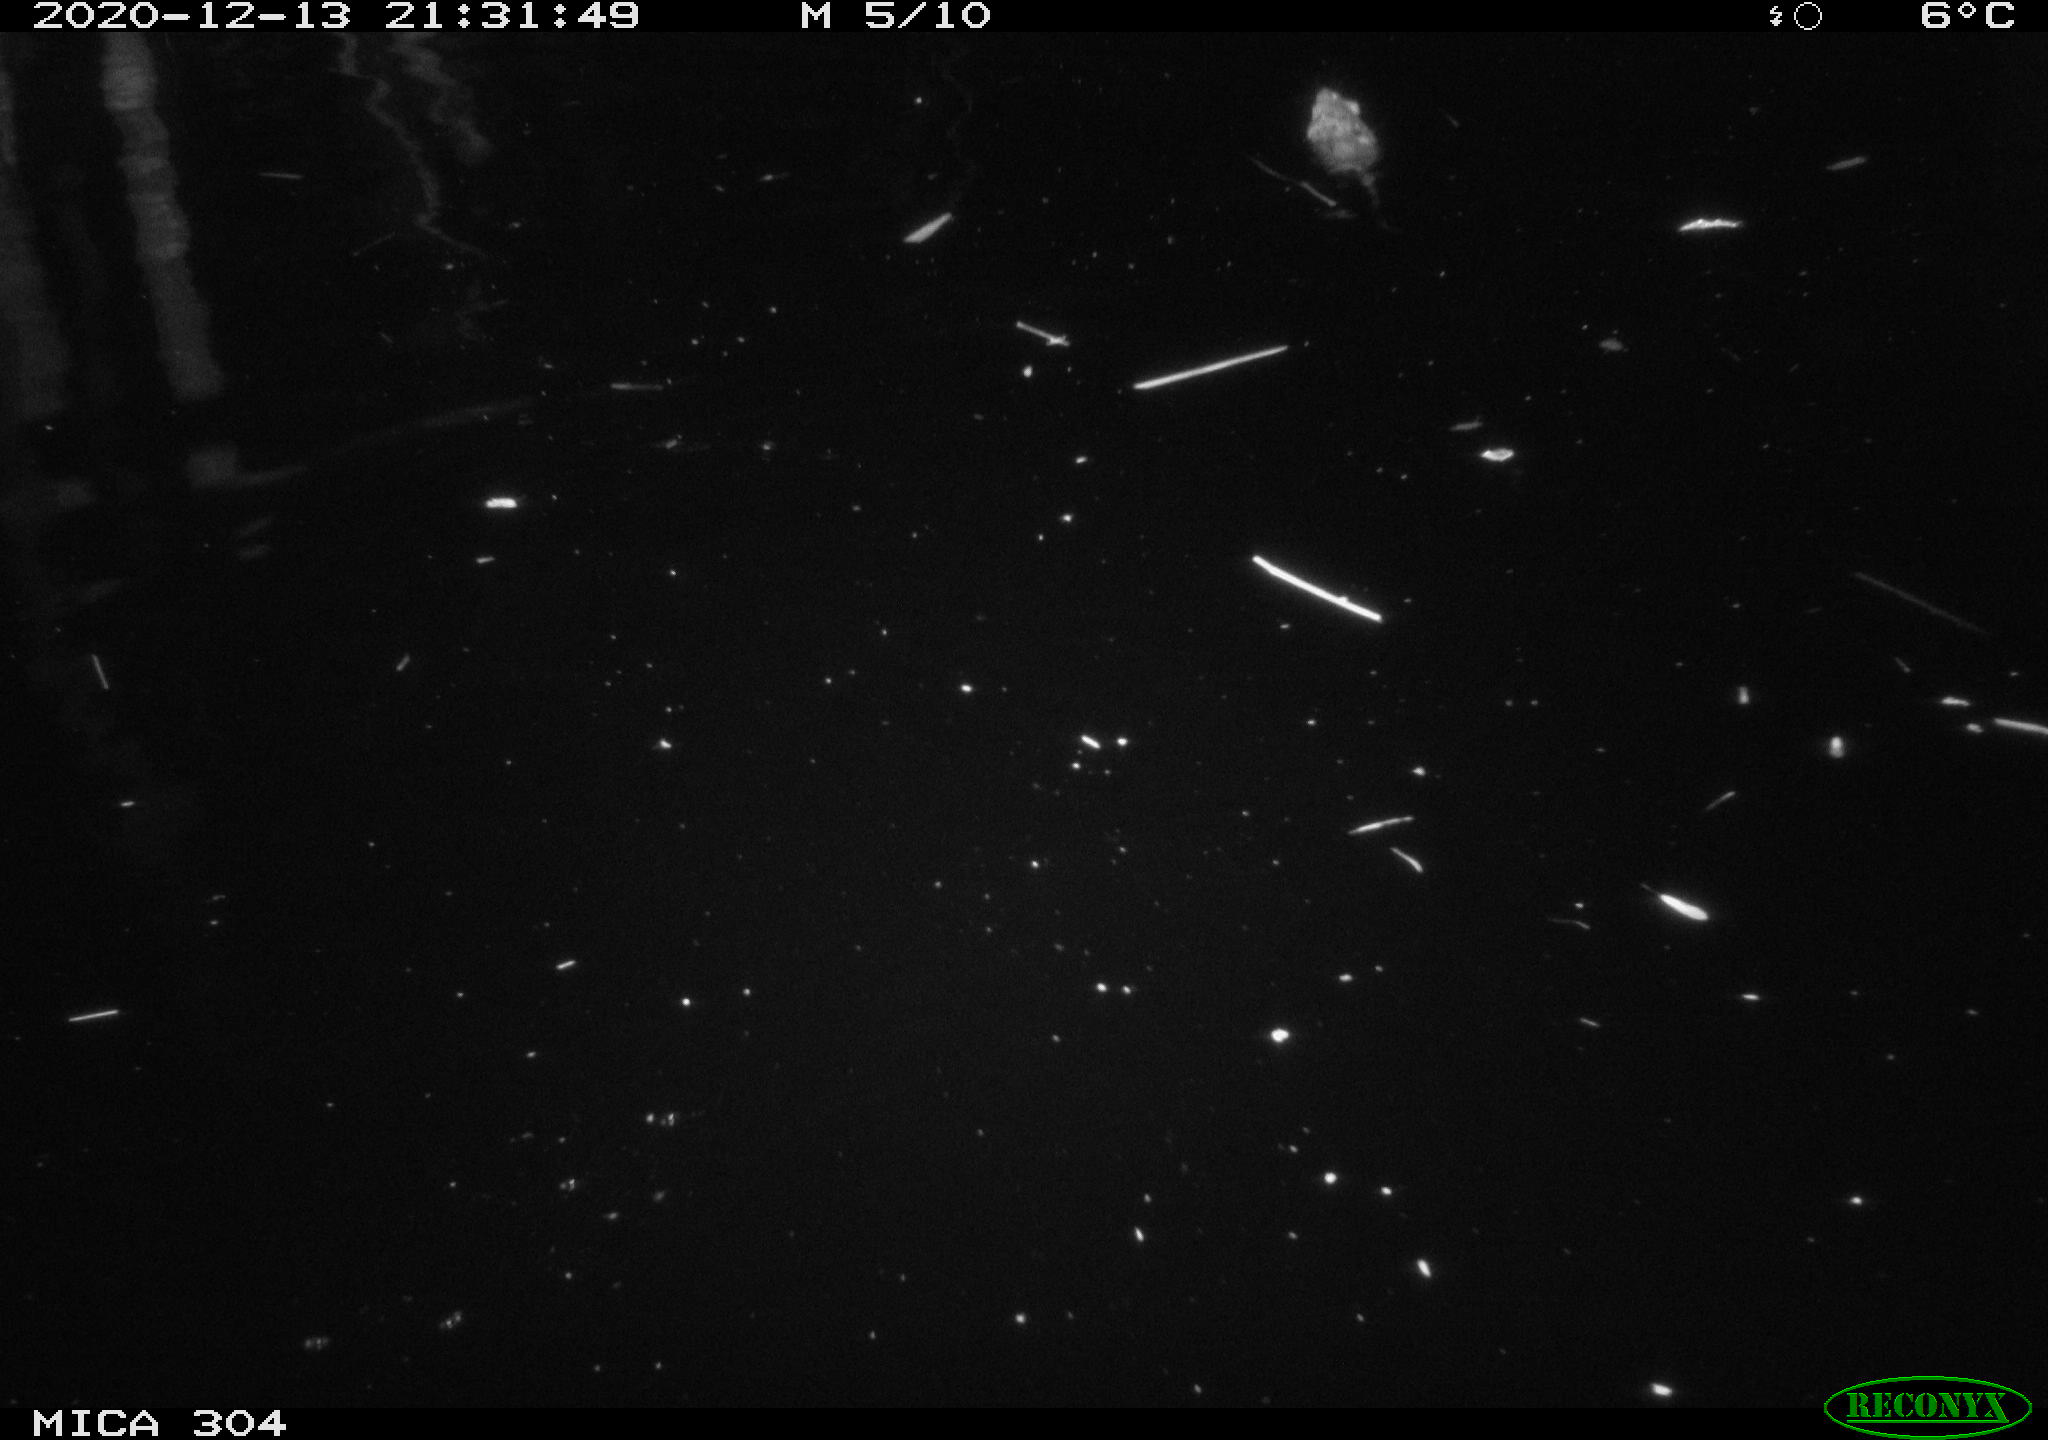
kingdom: Animalia
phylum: Chordata
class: Mammalia
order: Rodentia
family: Muridae
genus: Rattus
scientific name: Rattus norvegicus
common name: Brown rat
